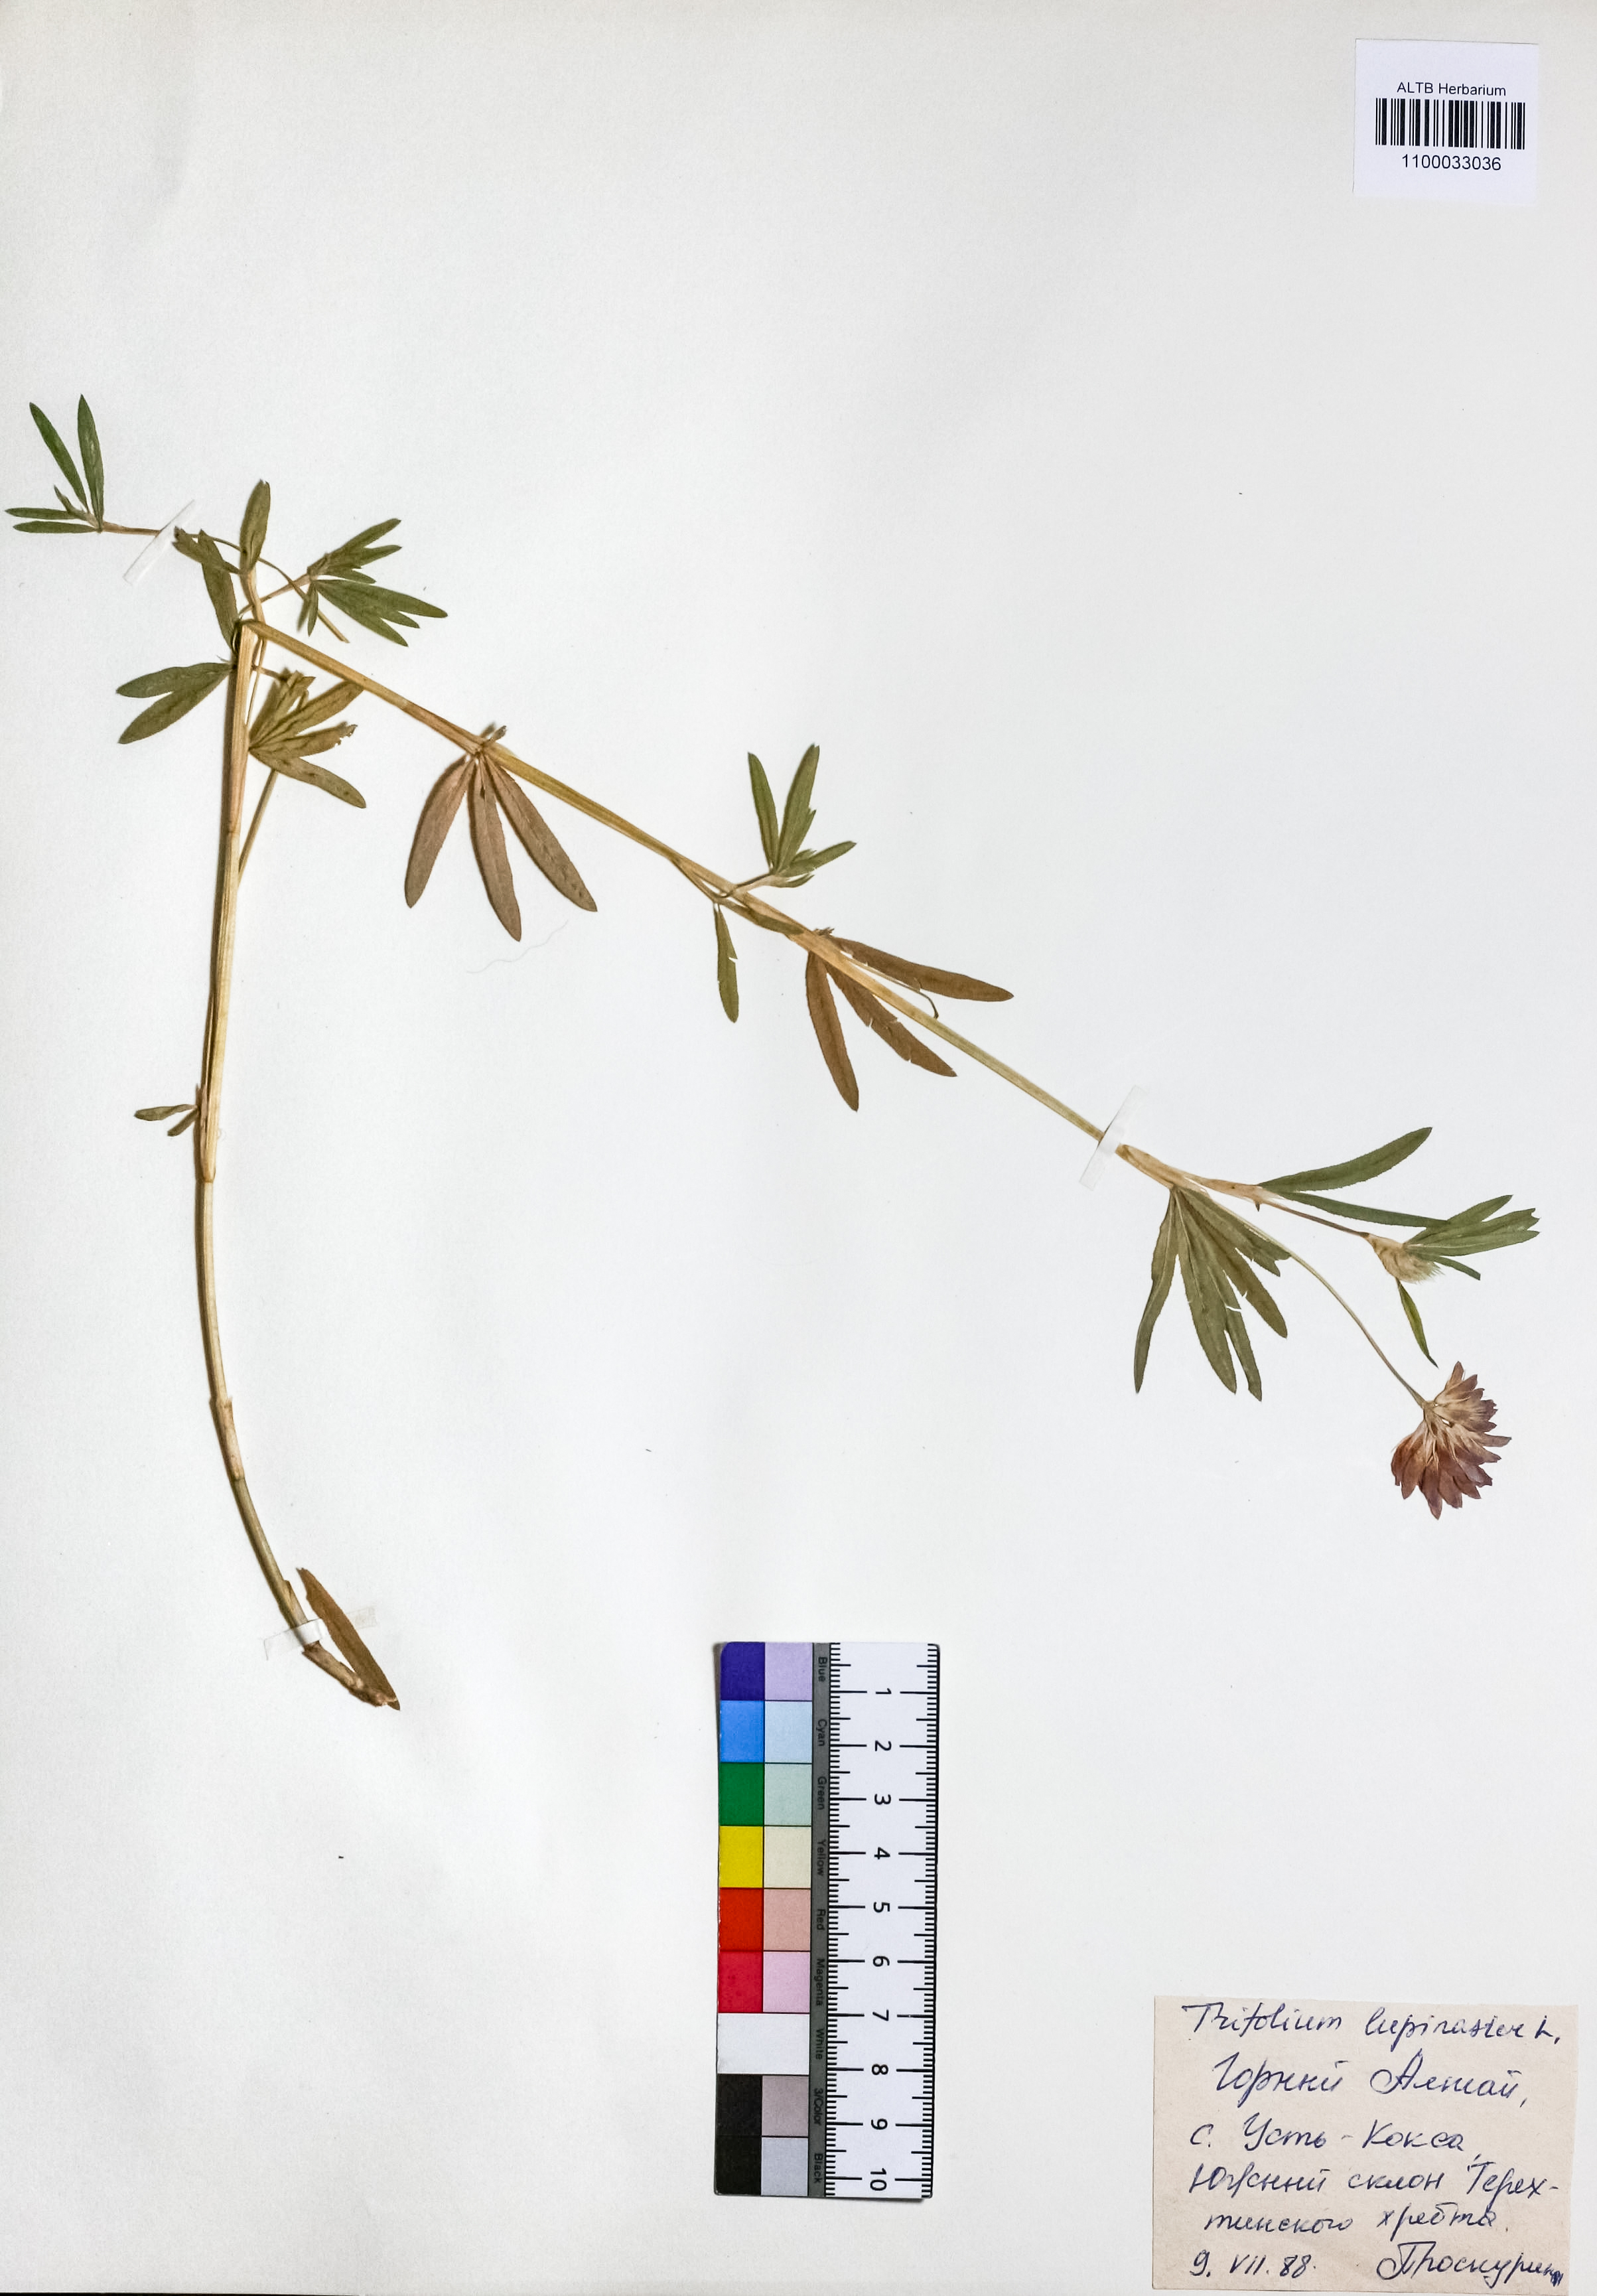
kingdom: Plantae
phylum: Tracheophyta
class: Magnoliopsida
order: Fabales
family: Fabaceae
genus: Trifolium
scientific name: Trifolium lupinaster
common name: Lupine clover
